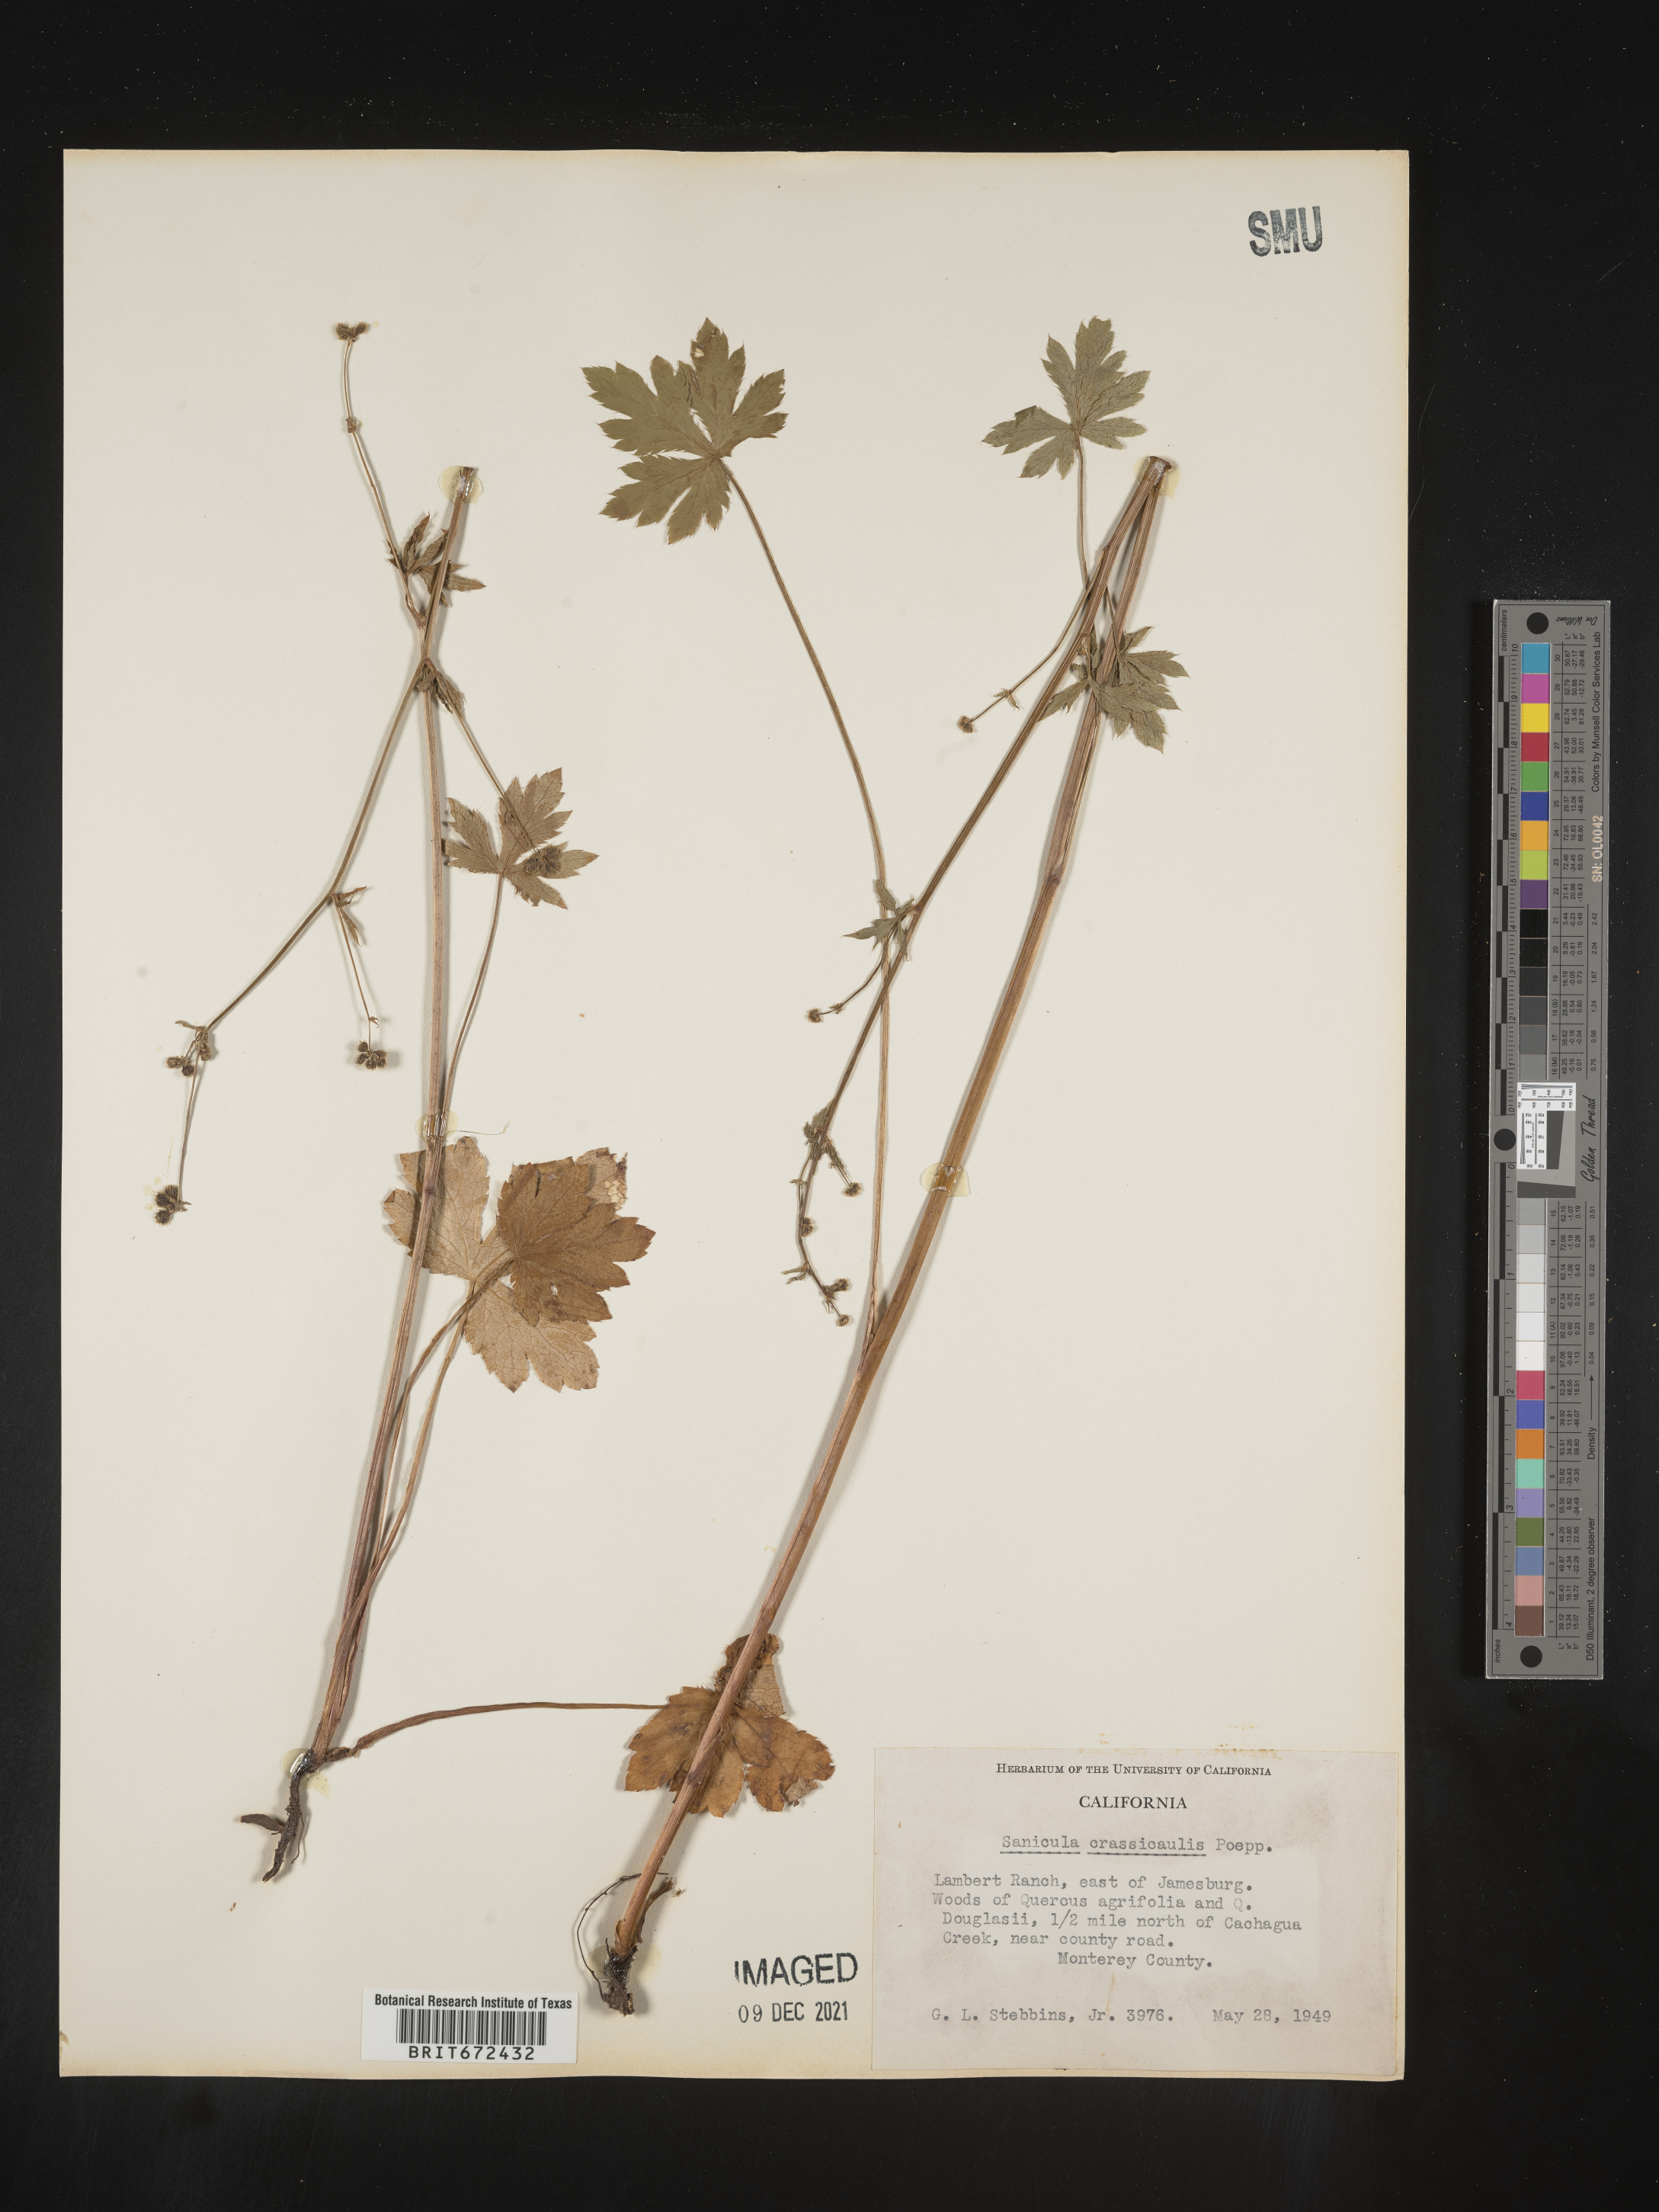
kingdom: Plantae
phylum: Tracheophyta
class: Magnoliopsida
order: Apiales
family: Apiaceae
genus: Sanicula
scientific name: Sanicula crassicaulis
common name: Western snakeroot
